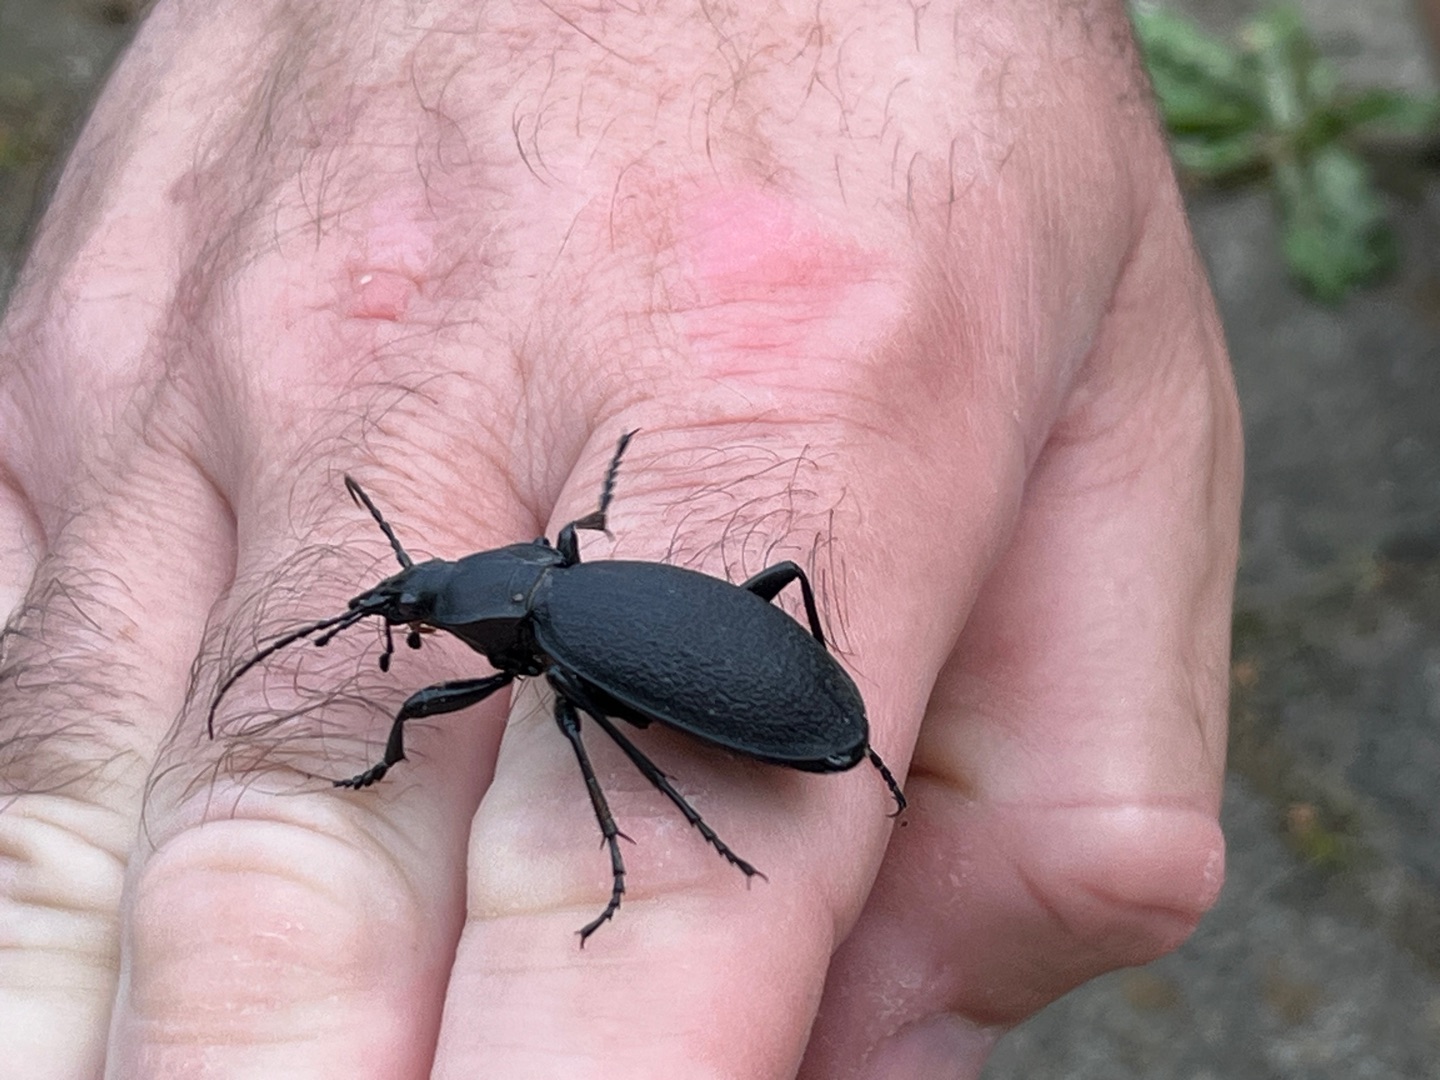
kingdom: Animalia
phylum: Arthropoda
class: Insecta
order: Coleoptera
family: Carabidae
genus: Carabus
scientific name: Carabus coriaceus
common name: Læderløber
